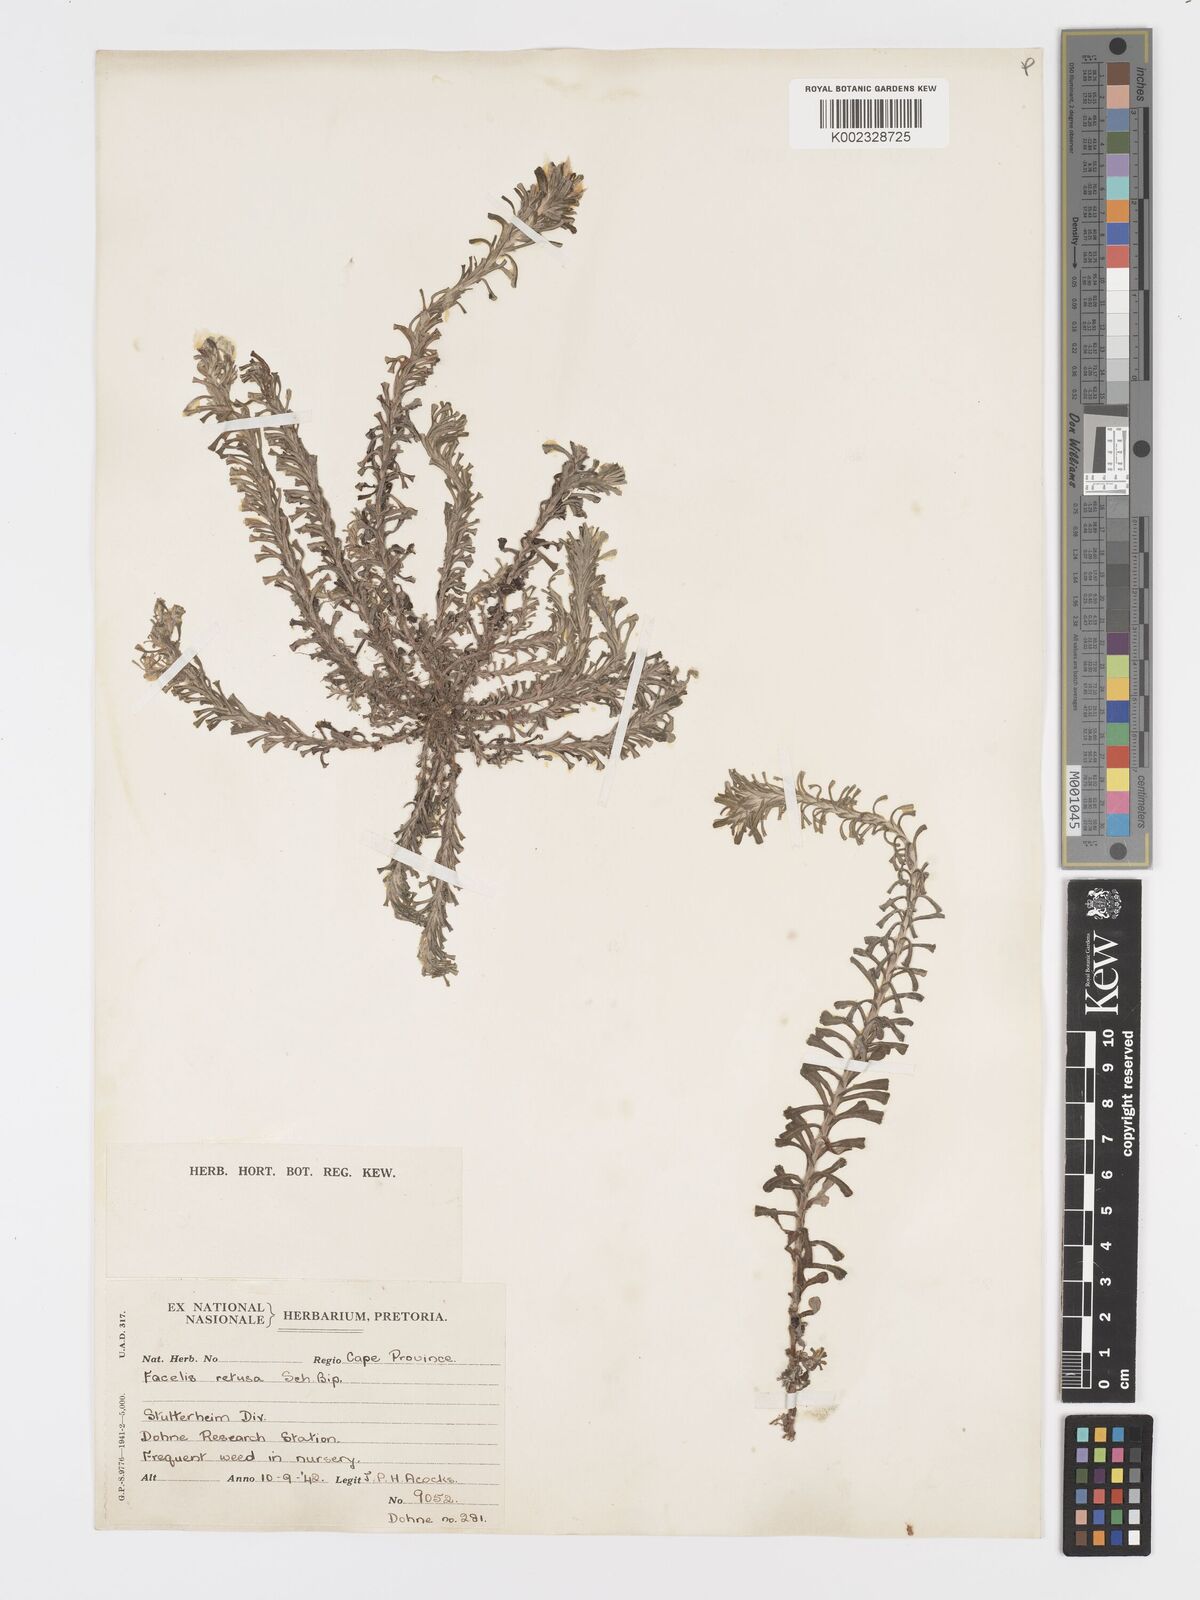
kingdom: Plantae
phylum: Tracheophyta
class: Magnoliopsida
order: Asterales
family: Asteraceae
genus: Facelis
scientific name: Facelis retusa
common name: Annual trampweed
